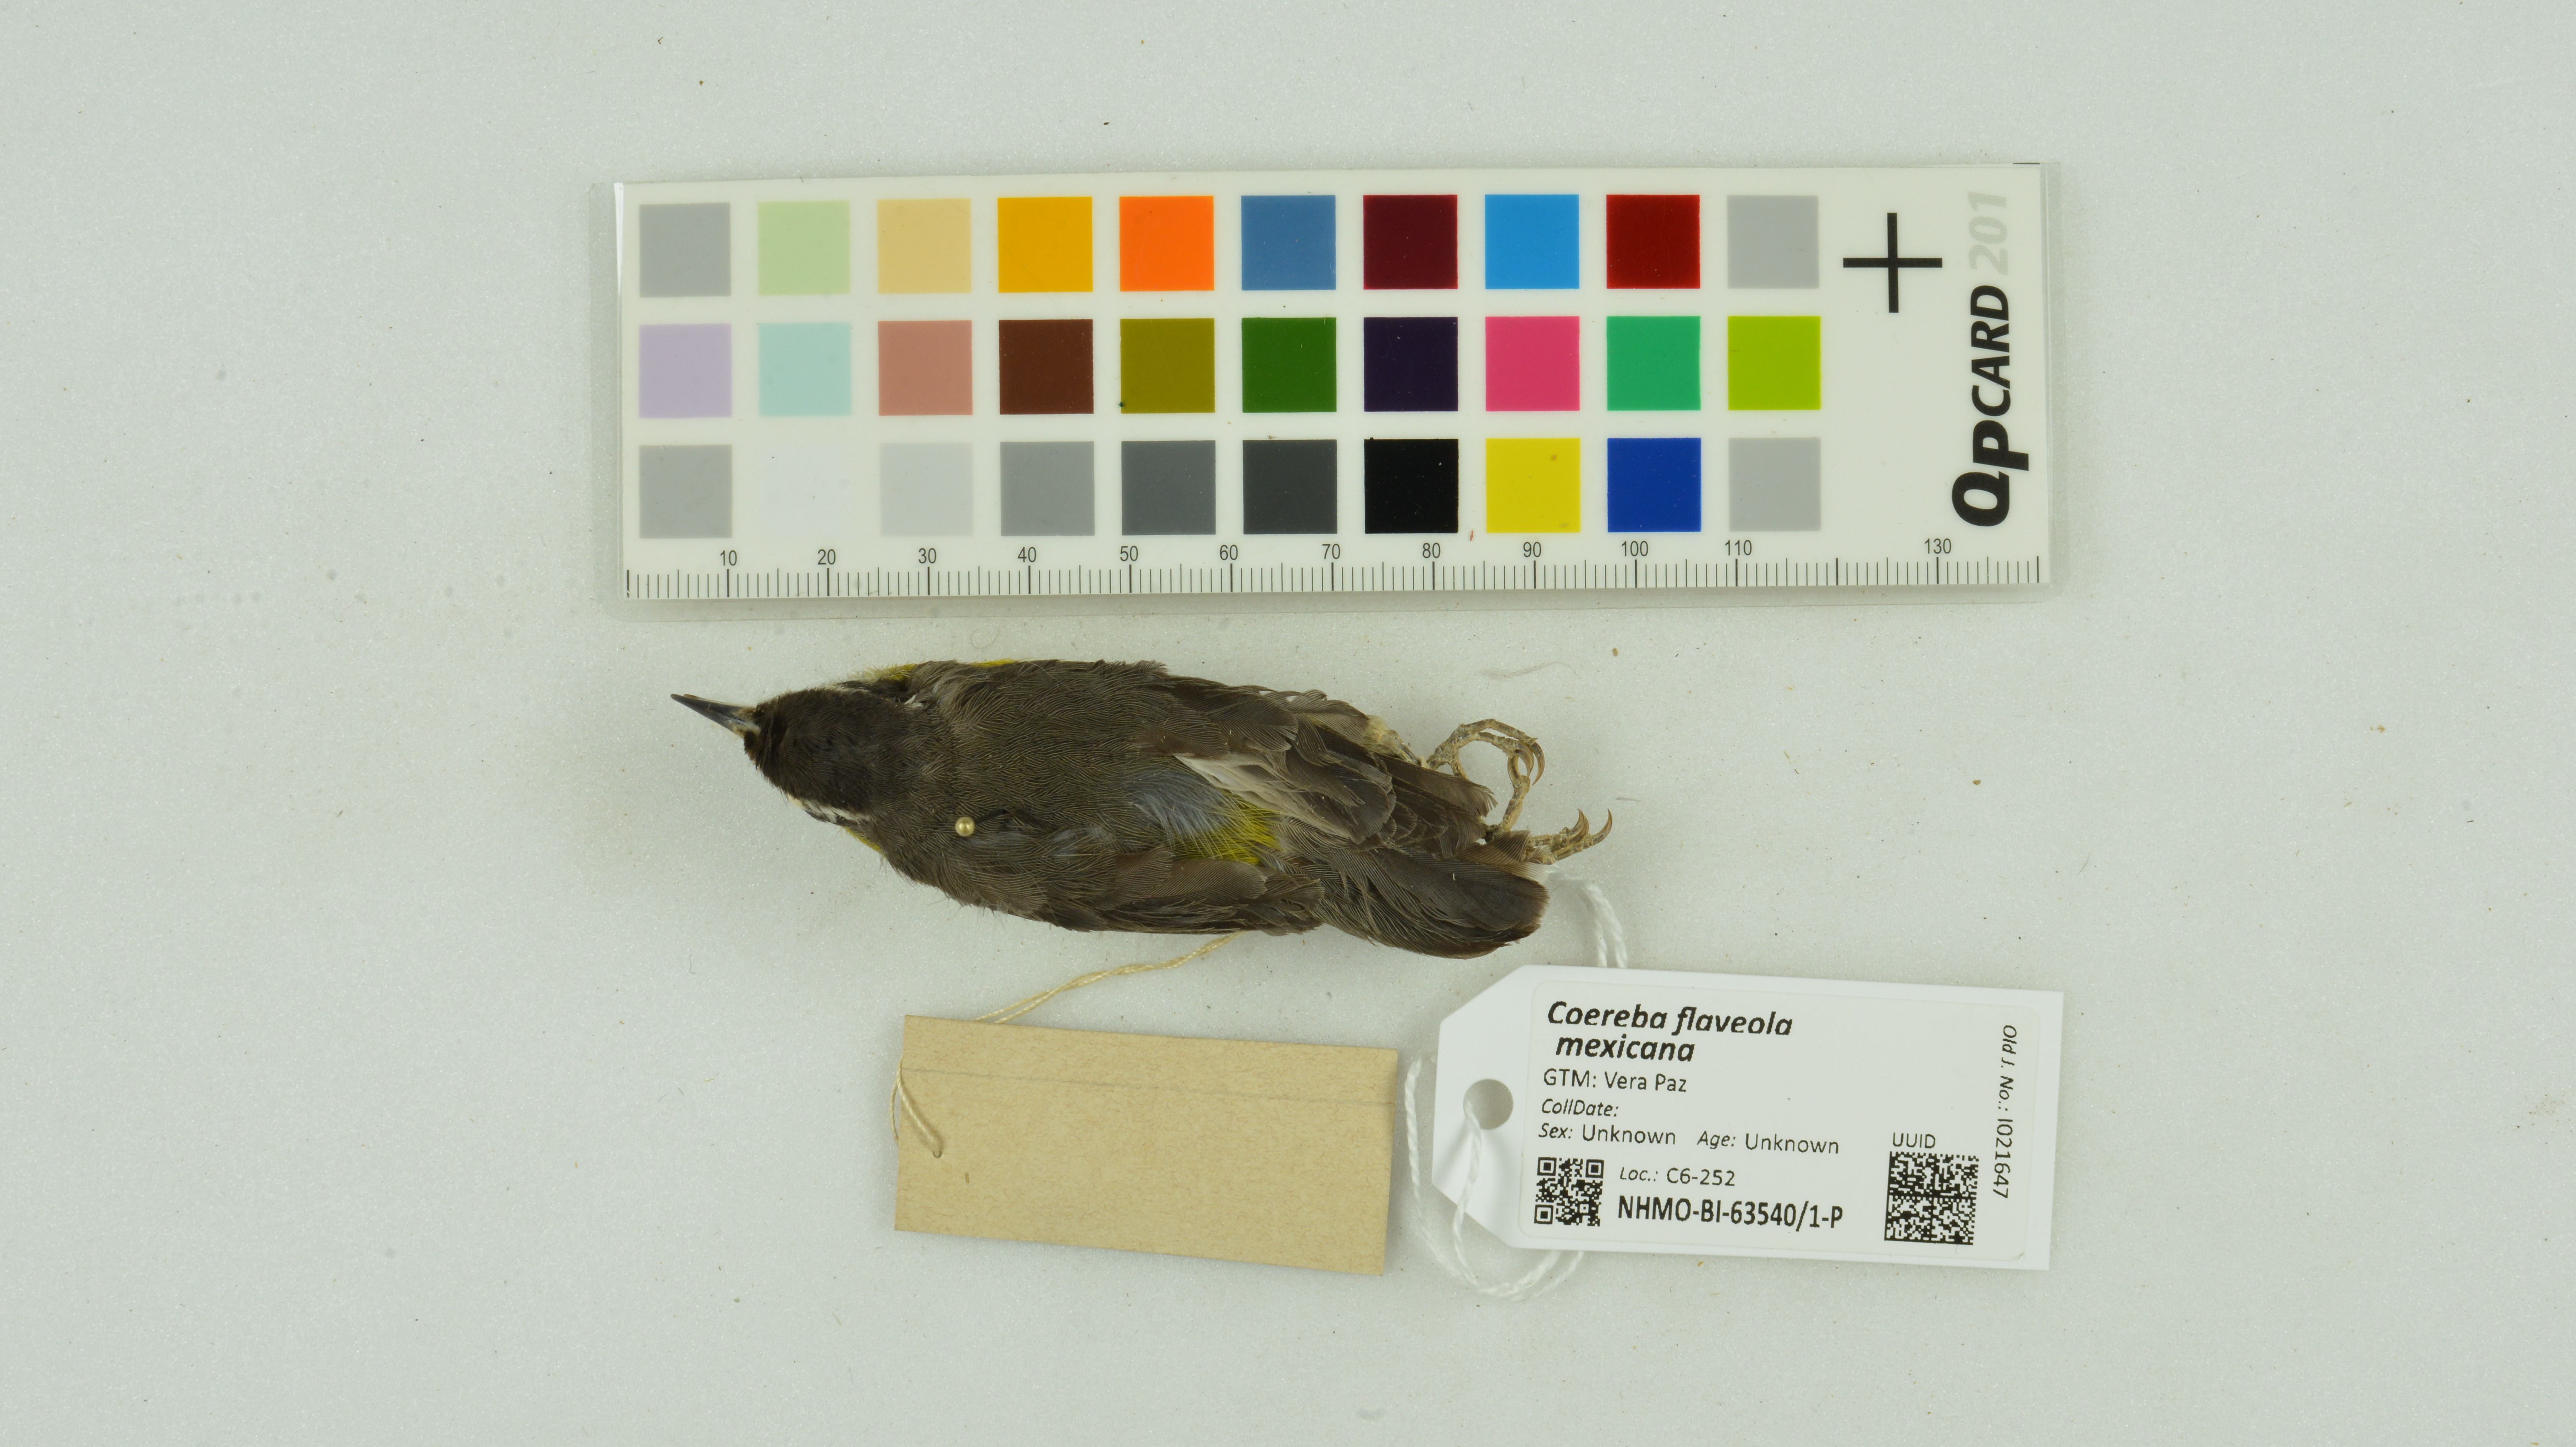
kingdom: Animalia
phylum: Chordata
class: Aves
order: Passeriformes
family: Thraupidae
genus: Coereba
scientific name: Coereba flaveola
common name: Bananaquit
